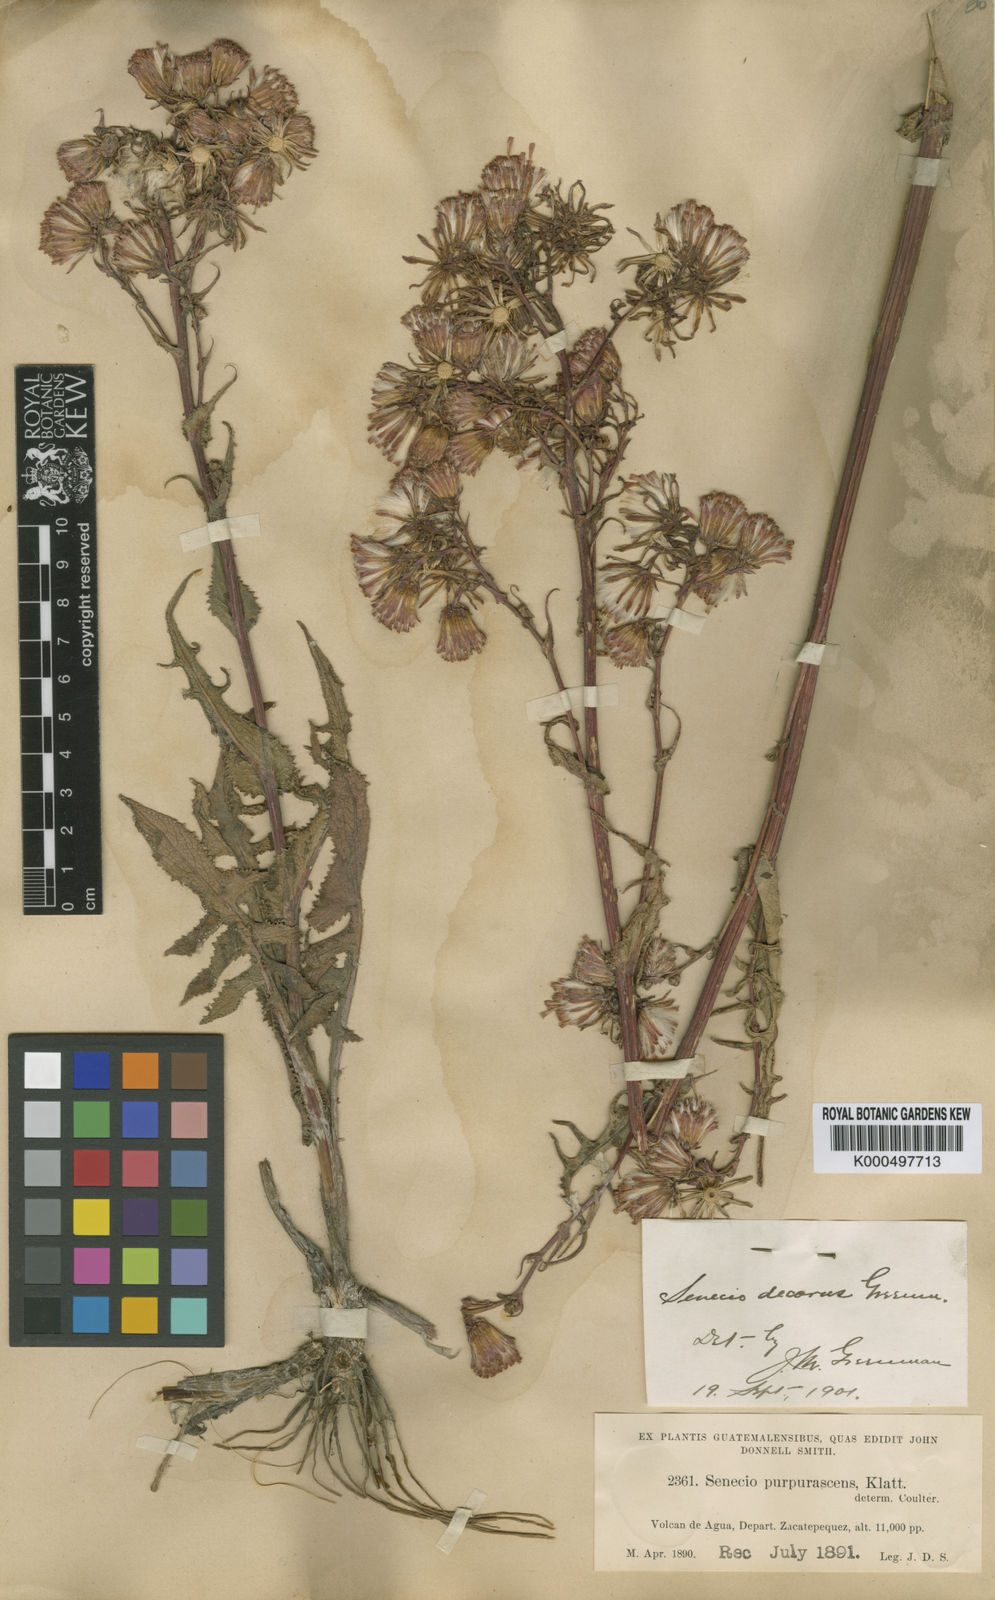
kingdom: Plantae
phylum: Tracheophyta
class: Magnoliopsida
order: Asterales
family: Asteraceae
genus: Senecio
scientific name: Senecio callosus
